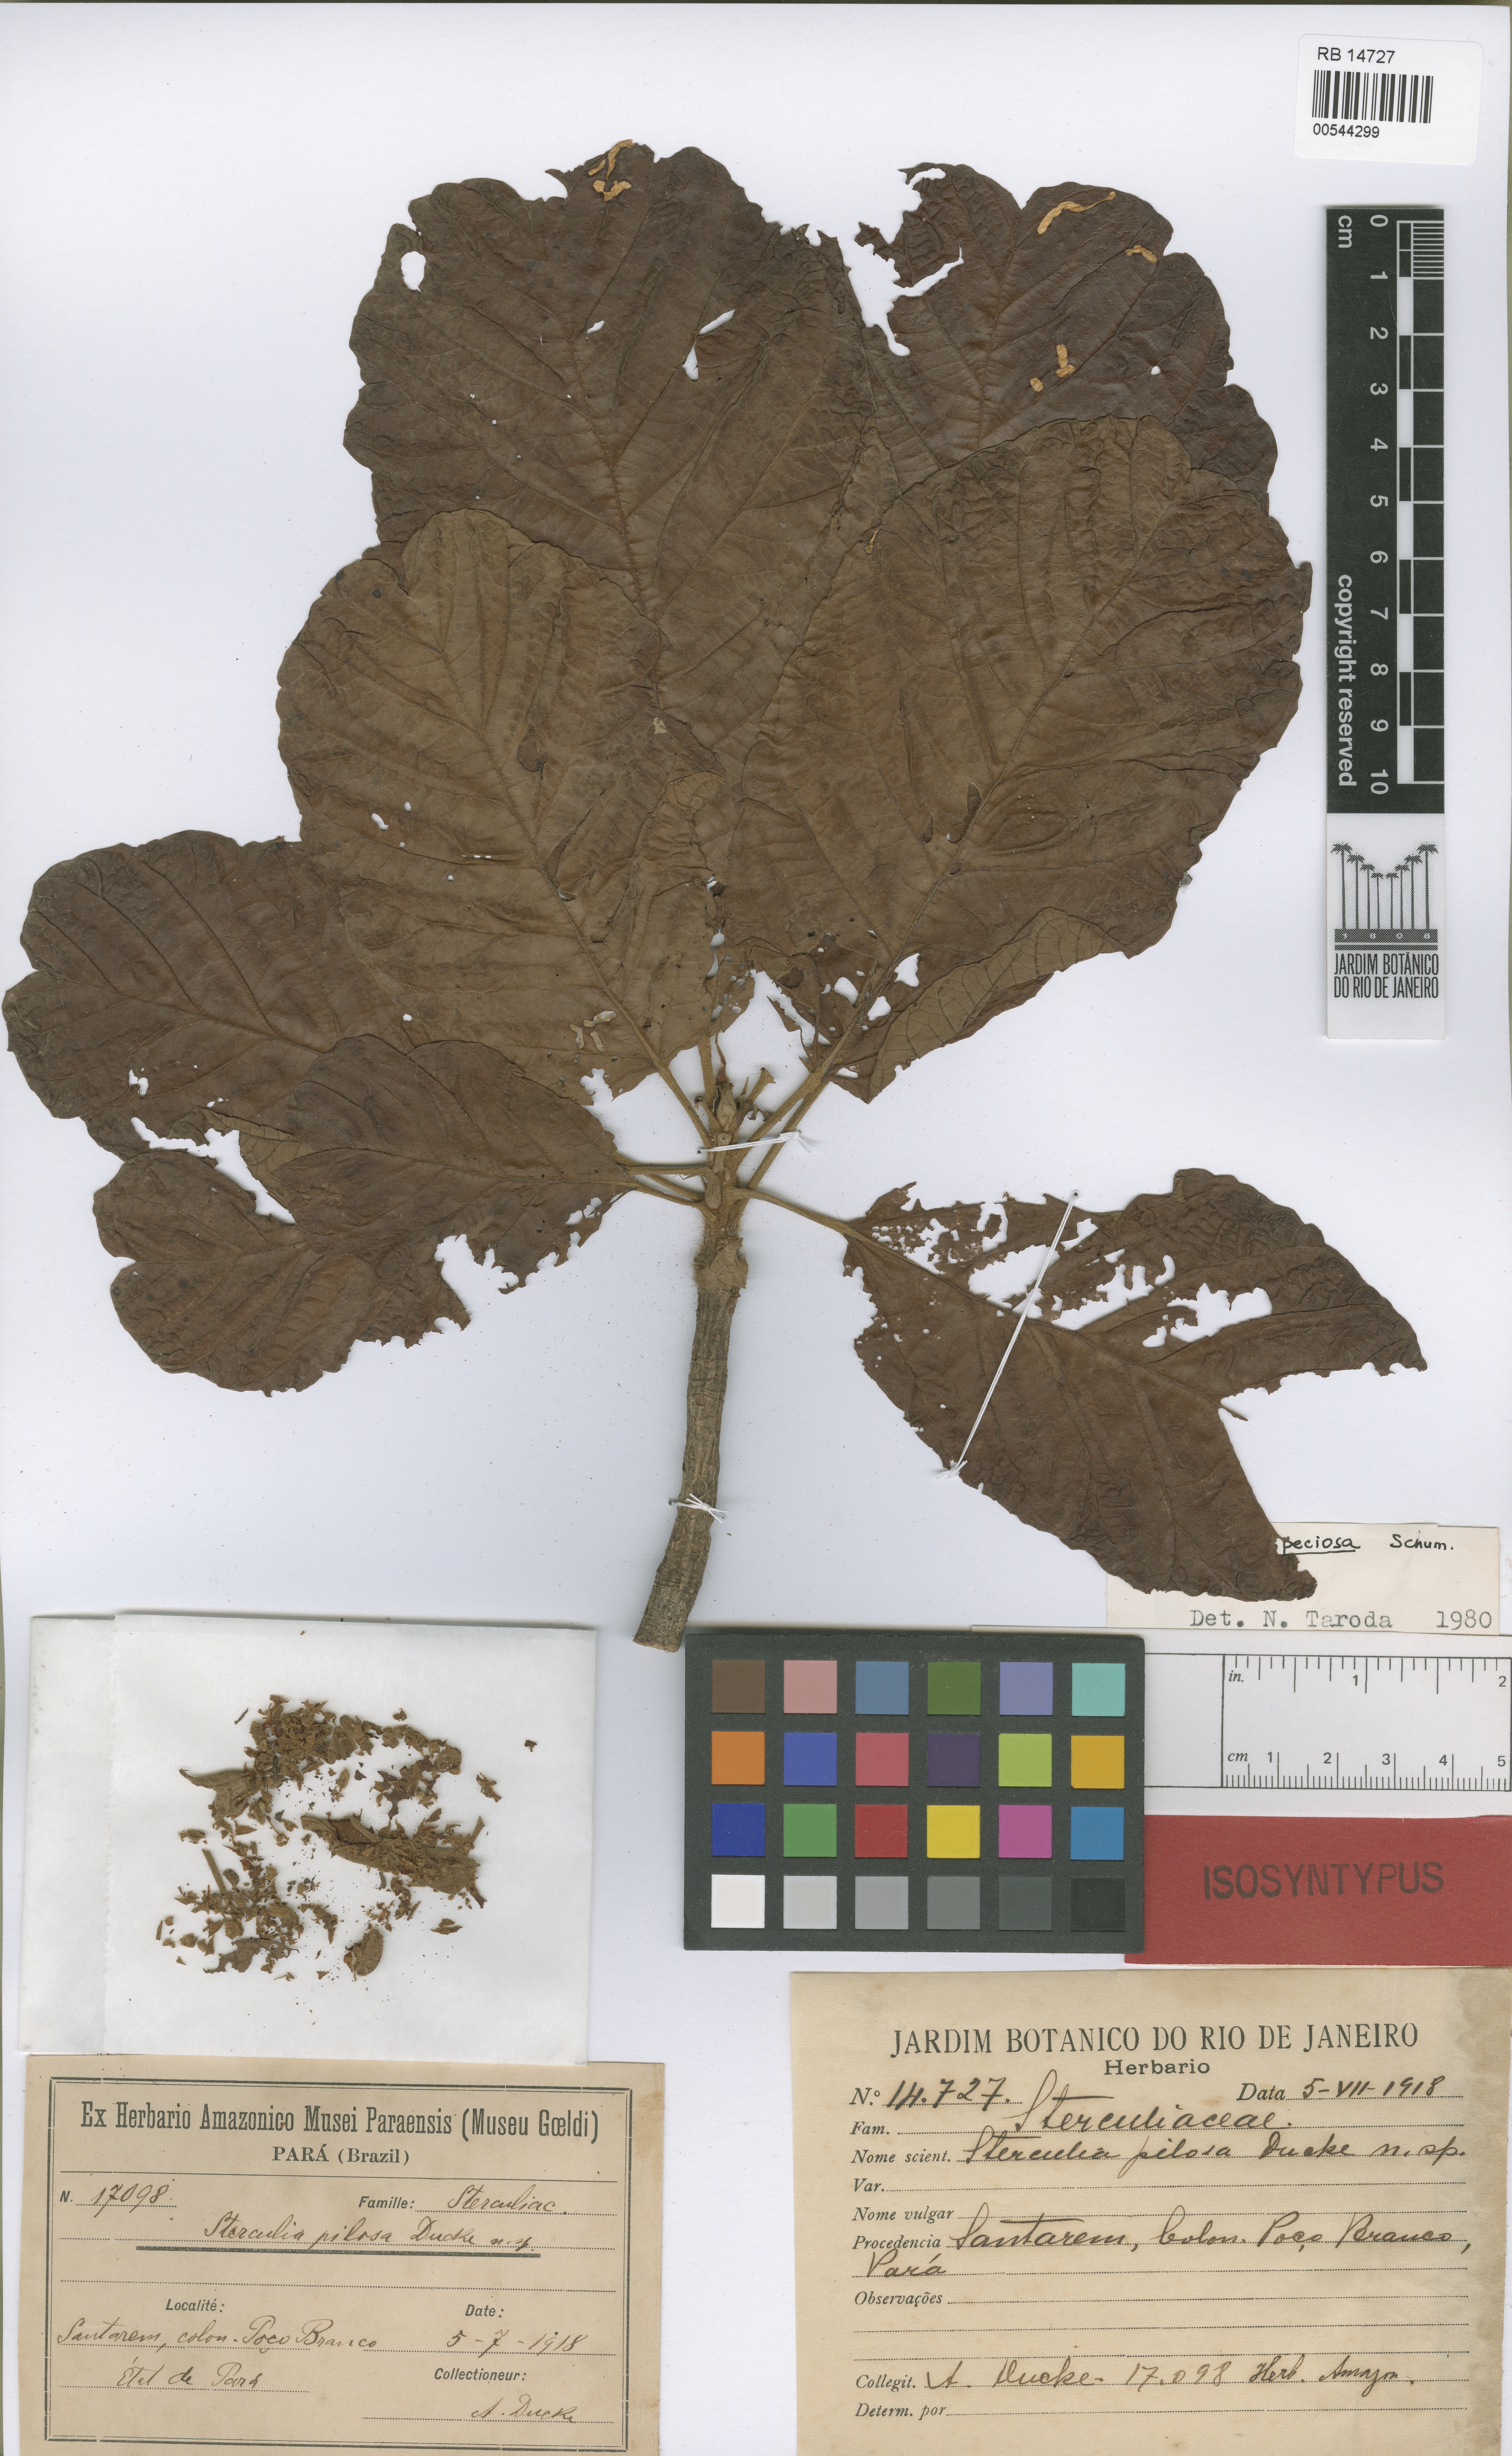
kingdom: Plantae
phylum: Tracheophyta
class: Magnoliopsida
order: Malvales
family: Malvaceae
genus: Sterculia
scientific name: Sterculia speciosa
